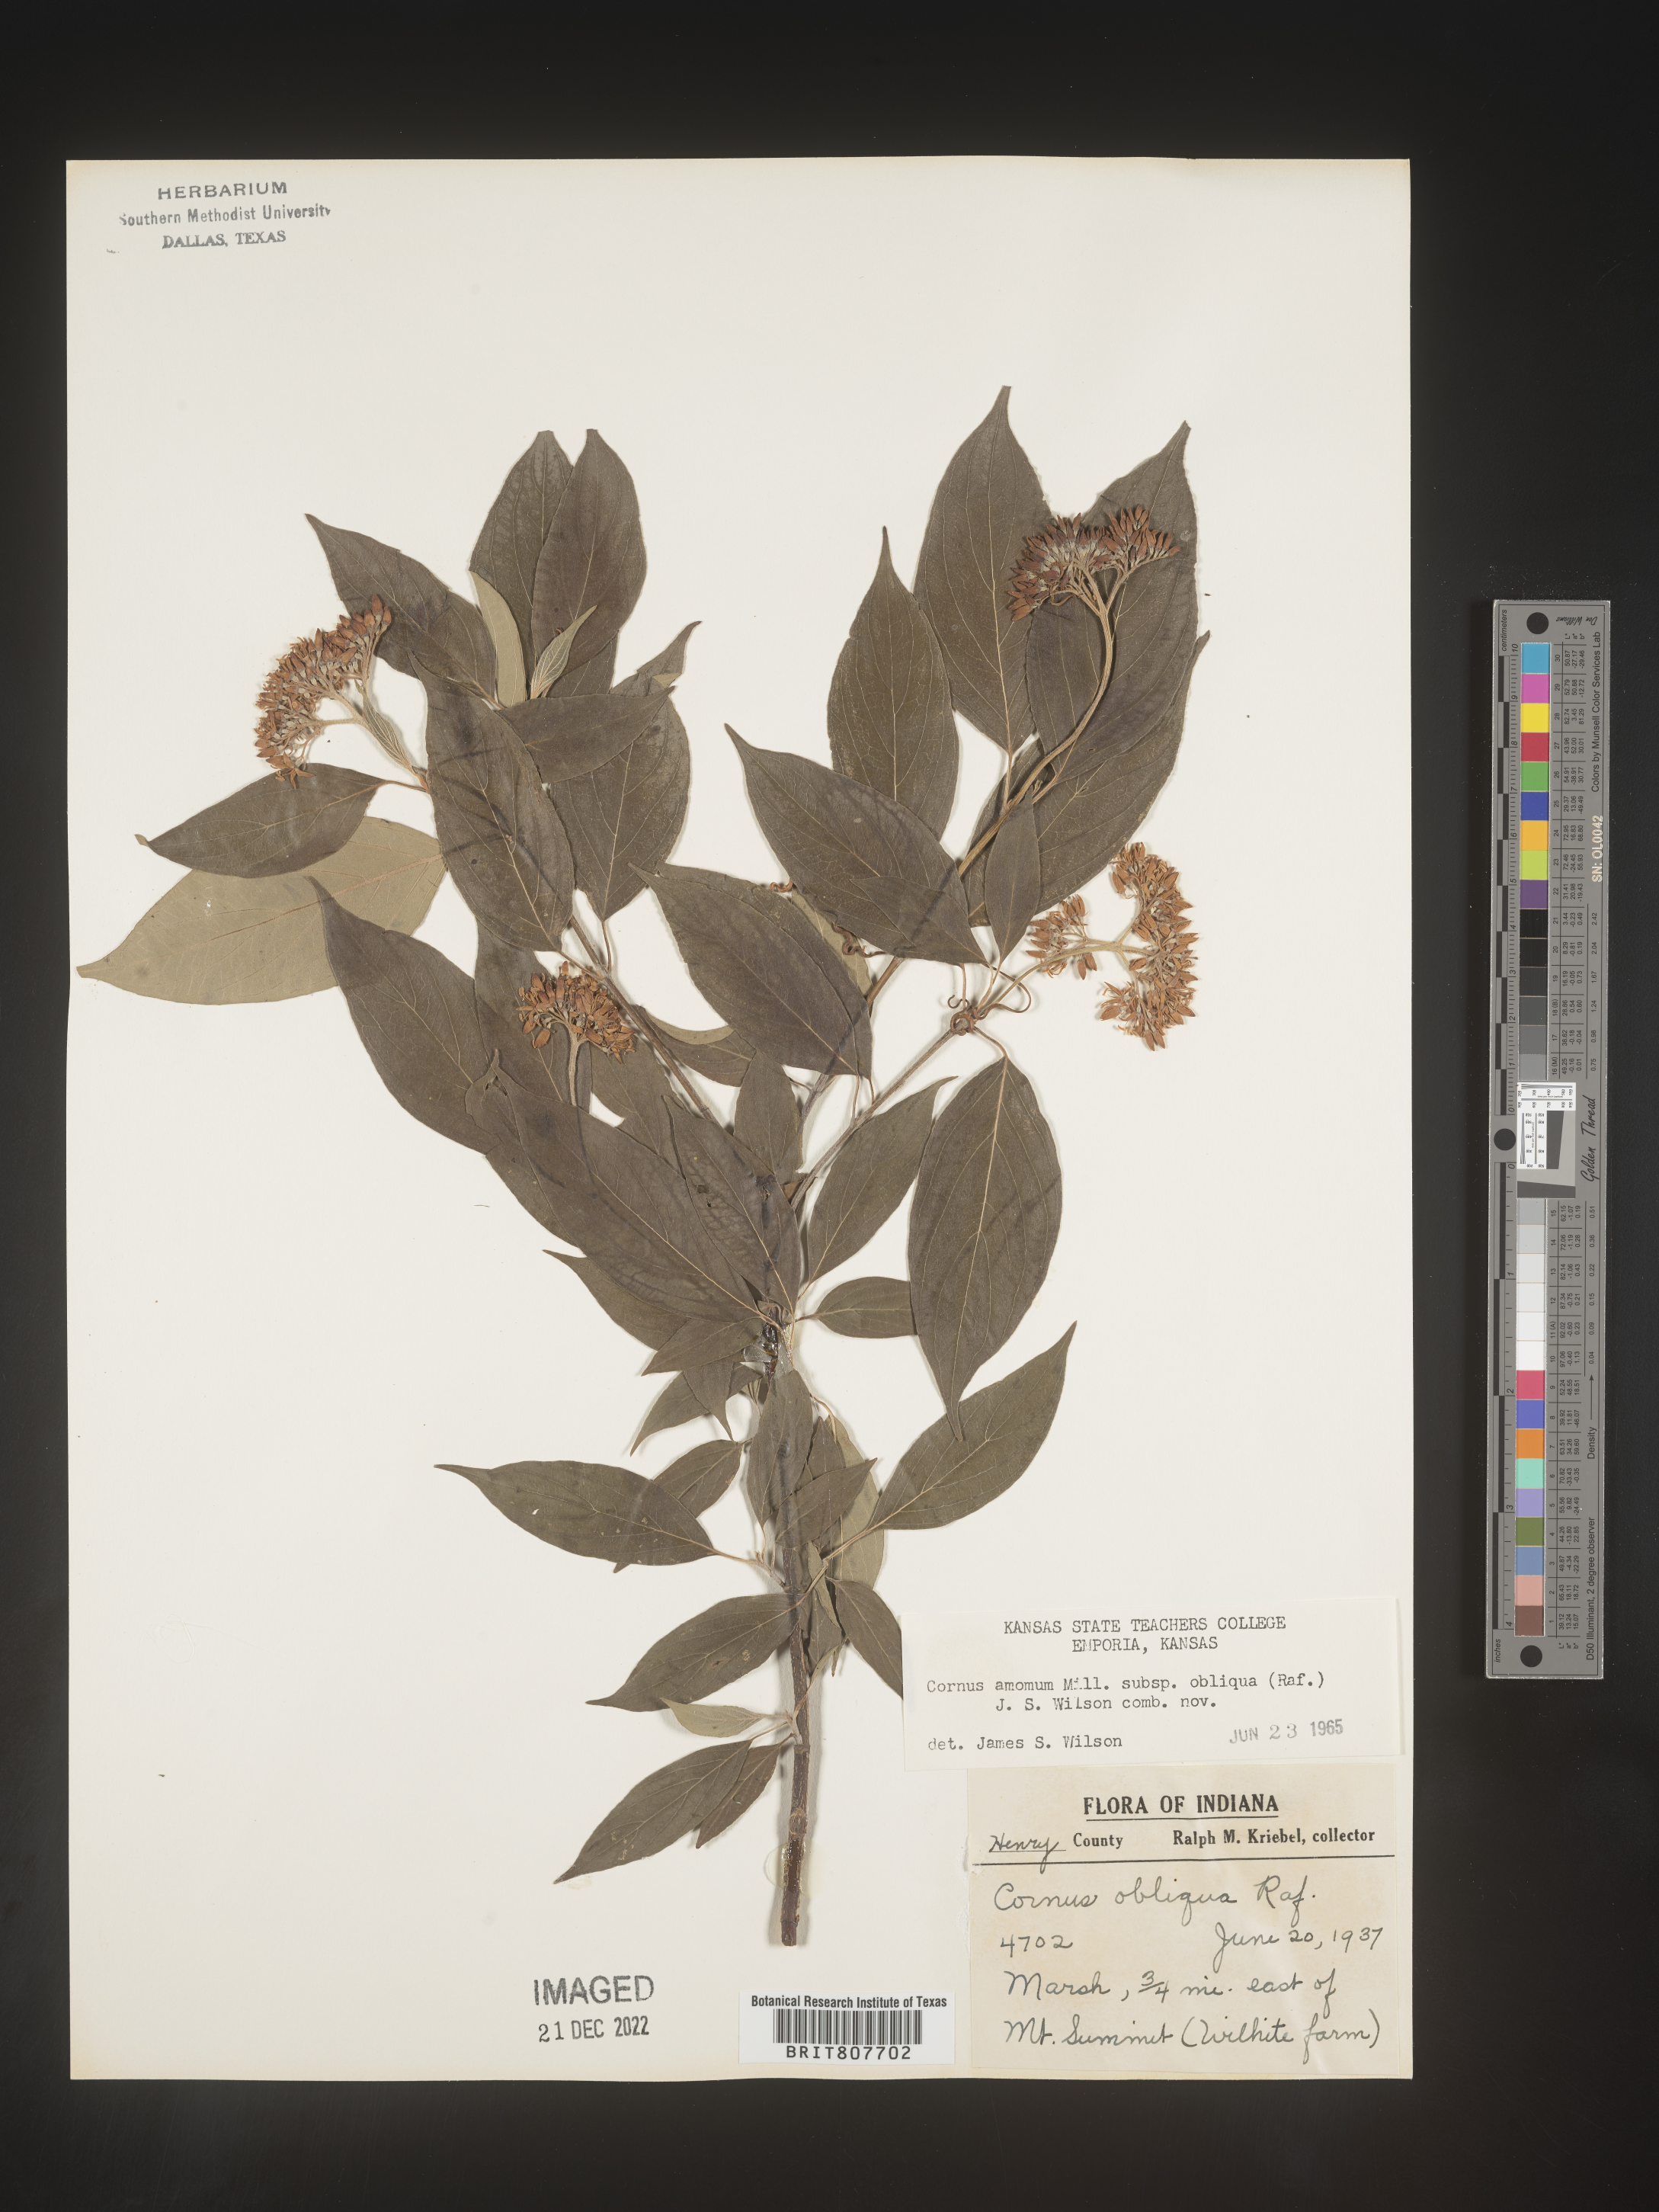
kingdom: Plantae
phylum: Tracheophyta
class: Magnoliopsida
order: Cornales
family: Cornaceae
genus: Cornus
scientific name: Cornus obliqua
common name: Pale dogwood
